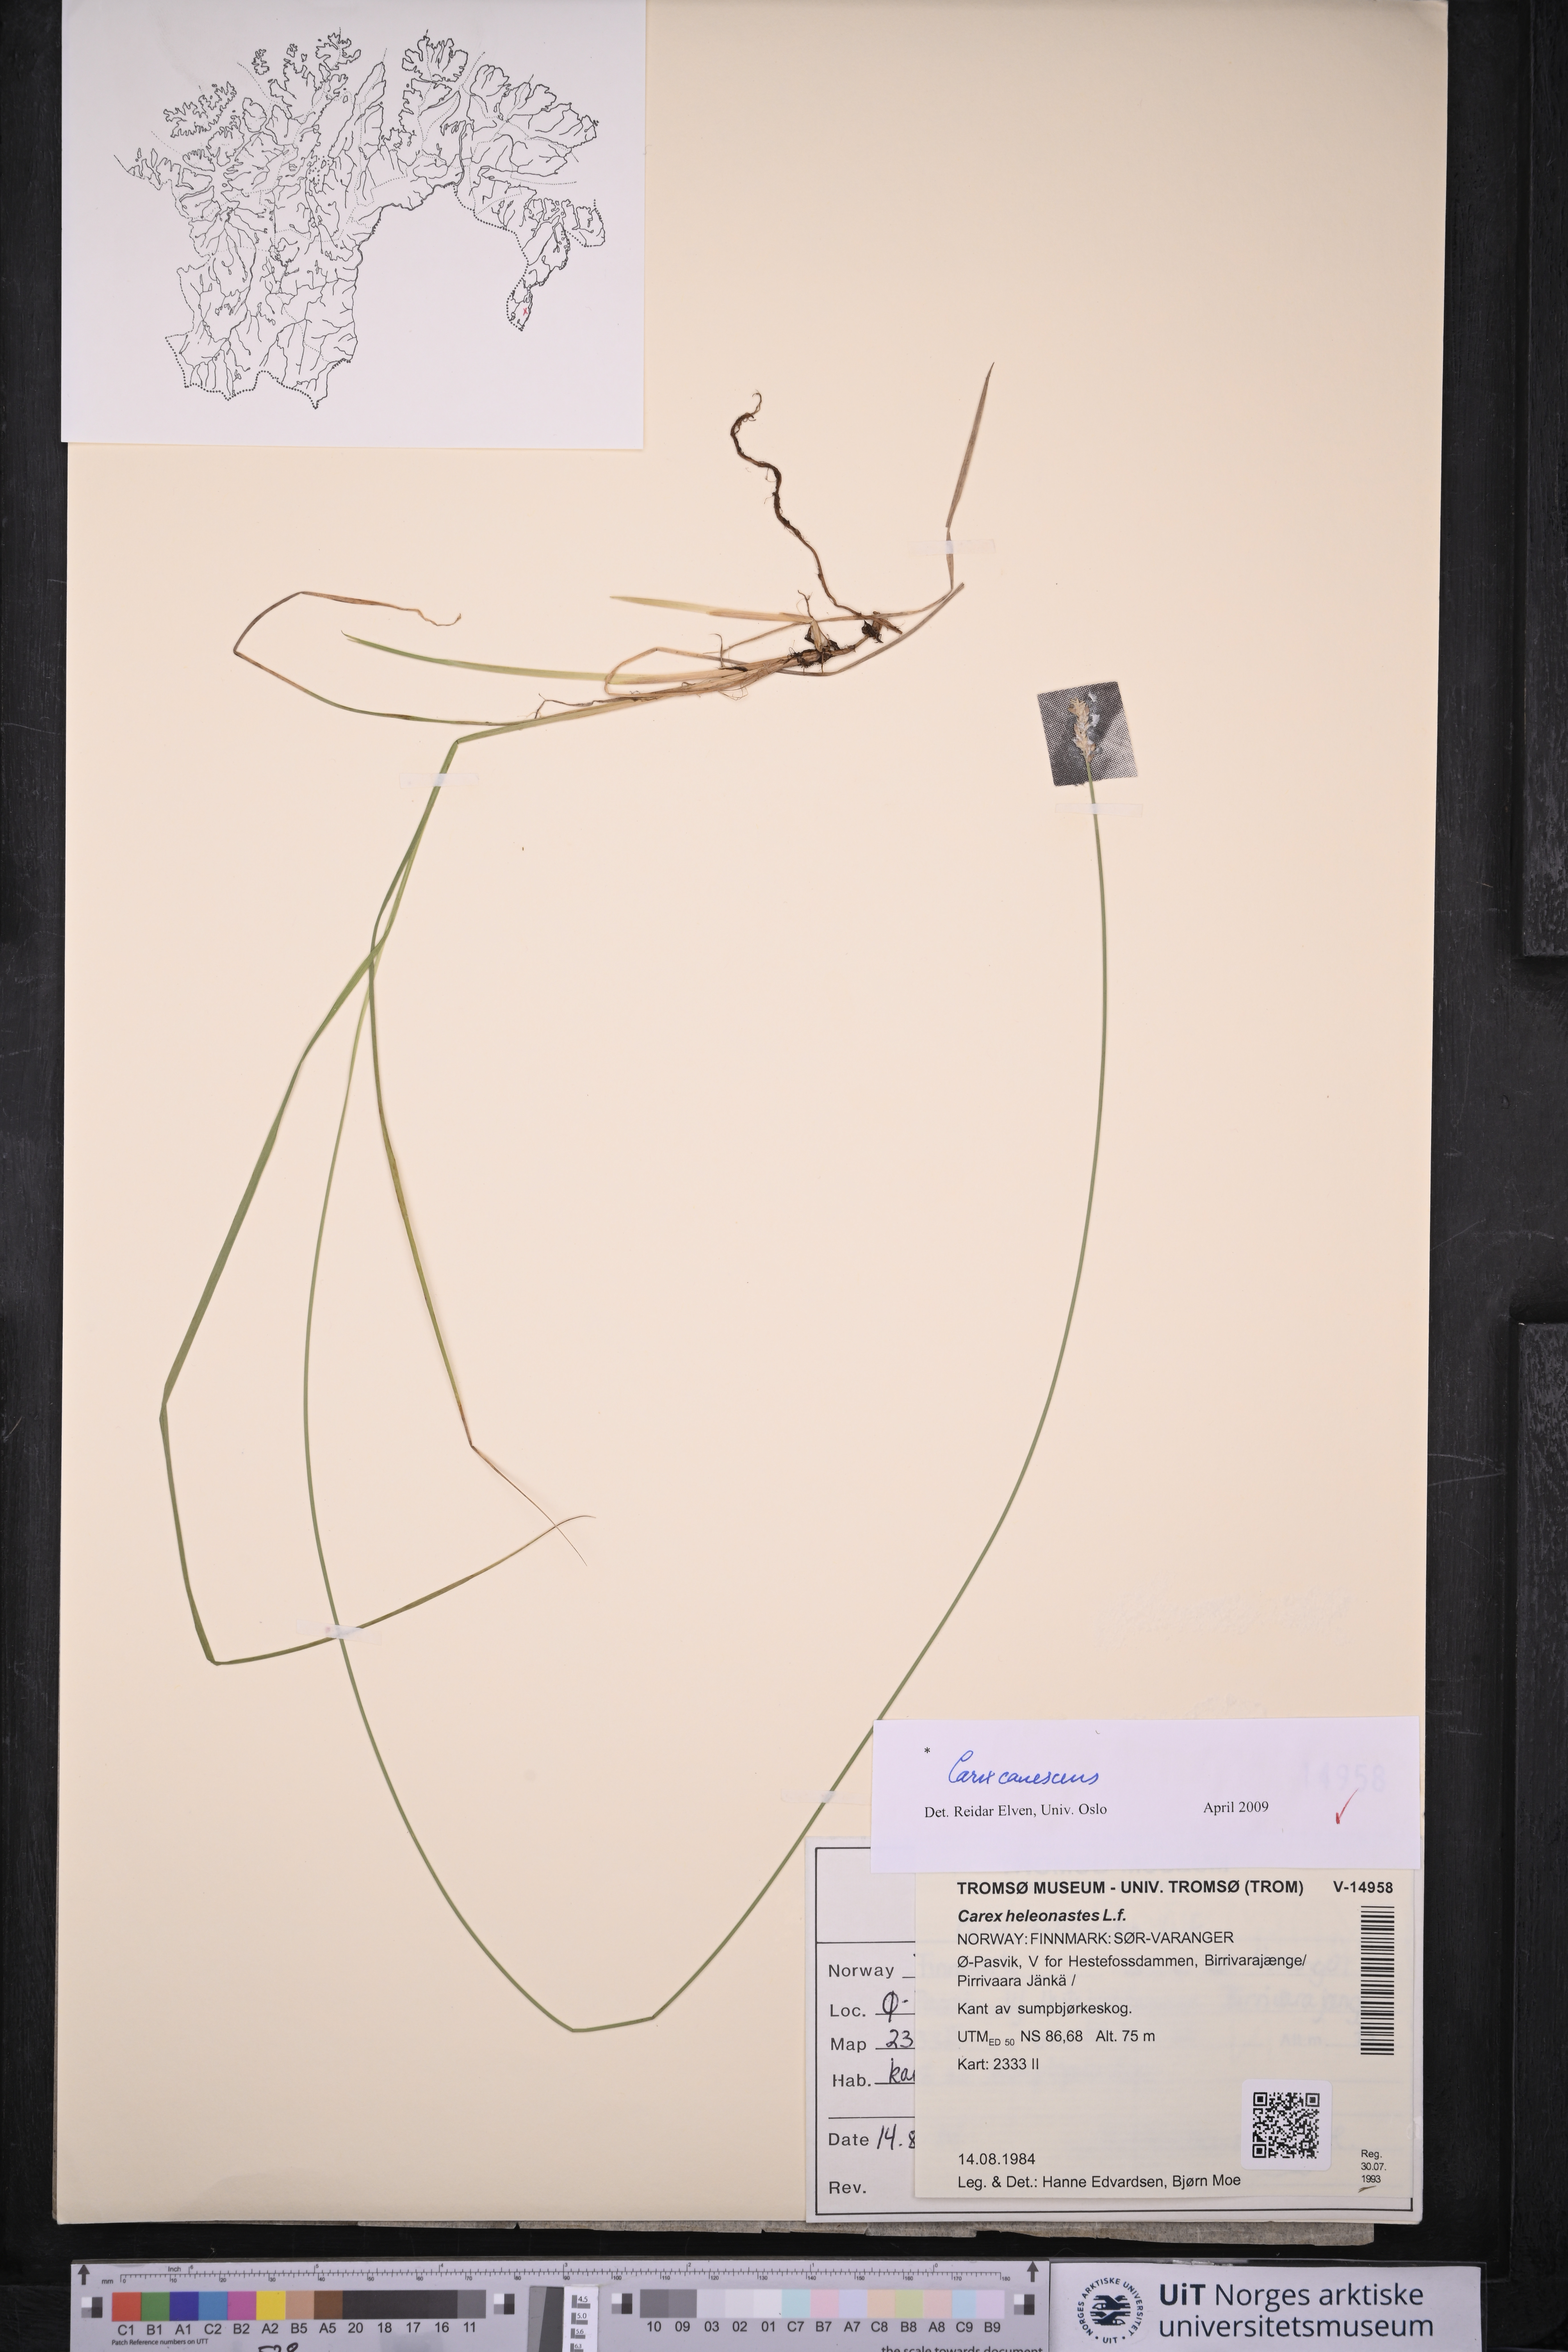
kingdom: Plantae
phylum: Tracheophyta
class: Liliopsida
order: Poales
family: Cyperaceae
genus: Carex
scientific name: Carex canescens
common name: White sedge
